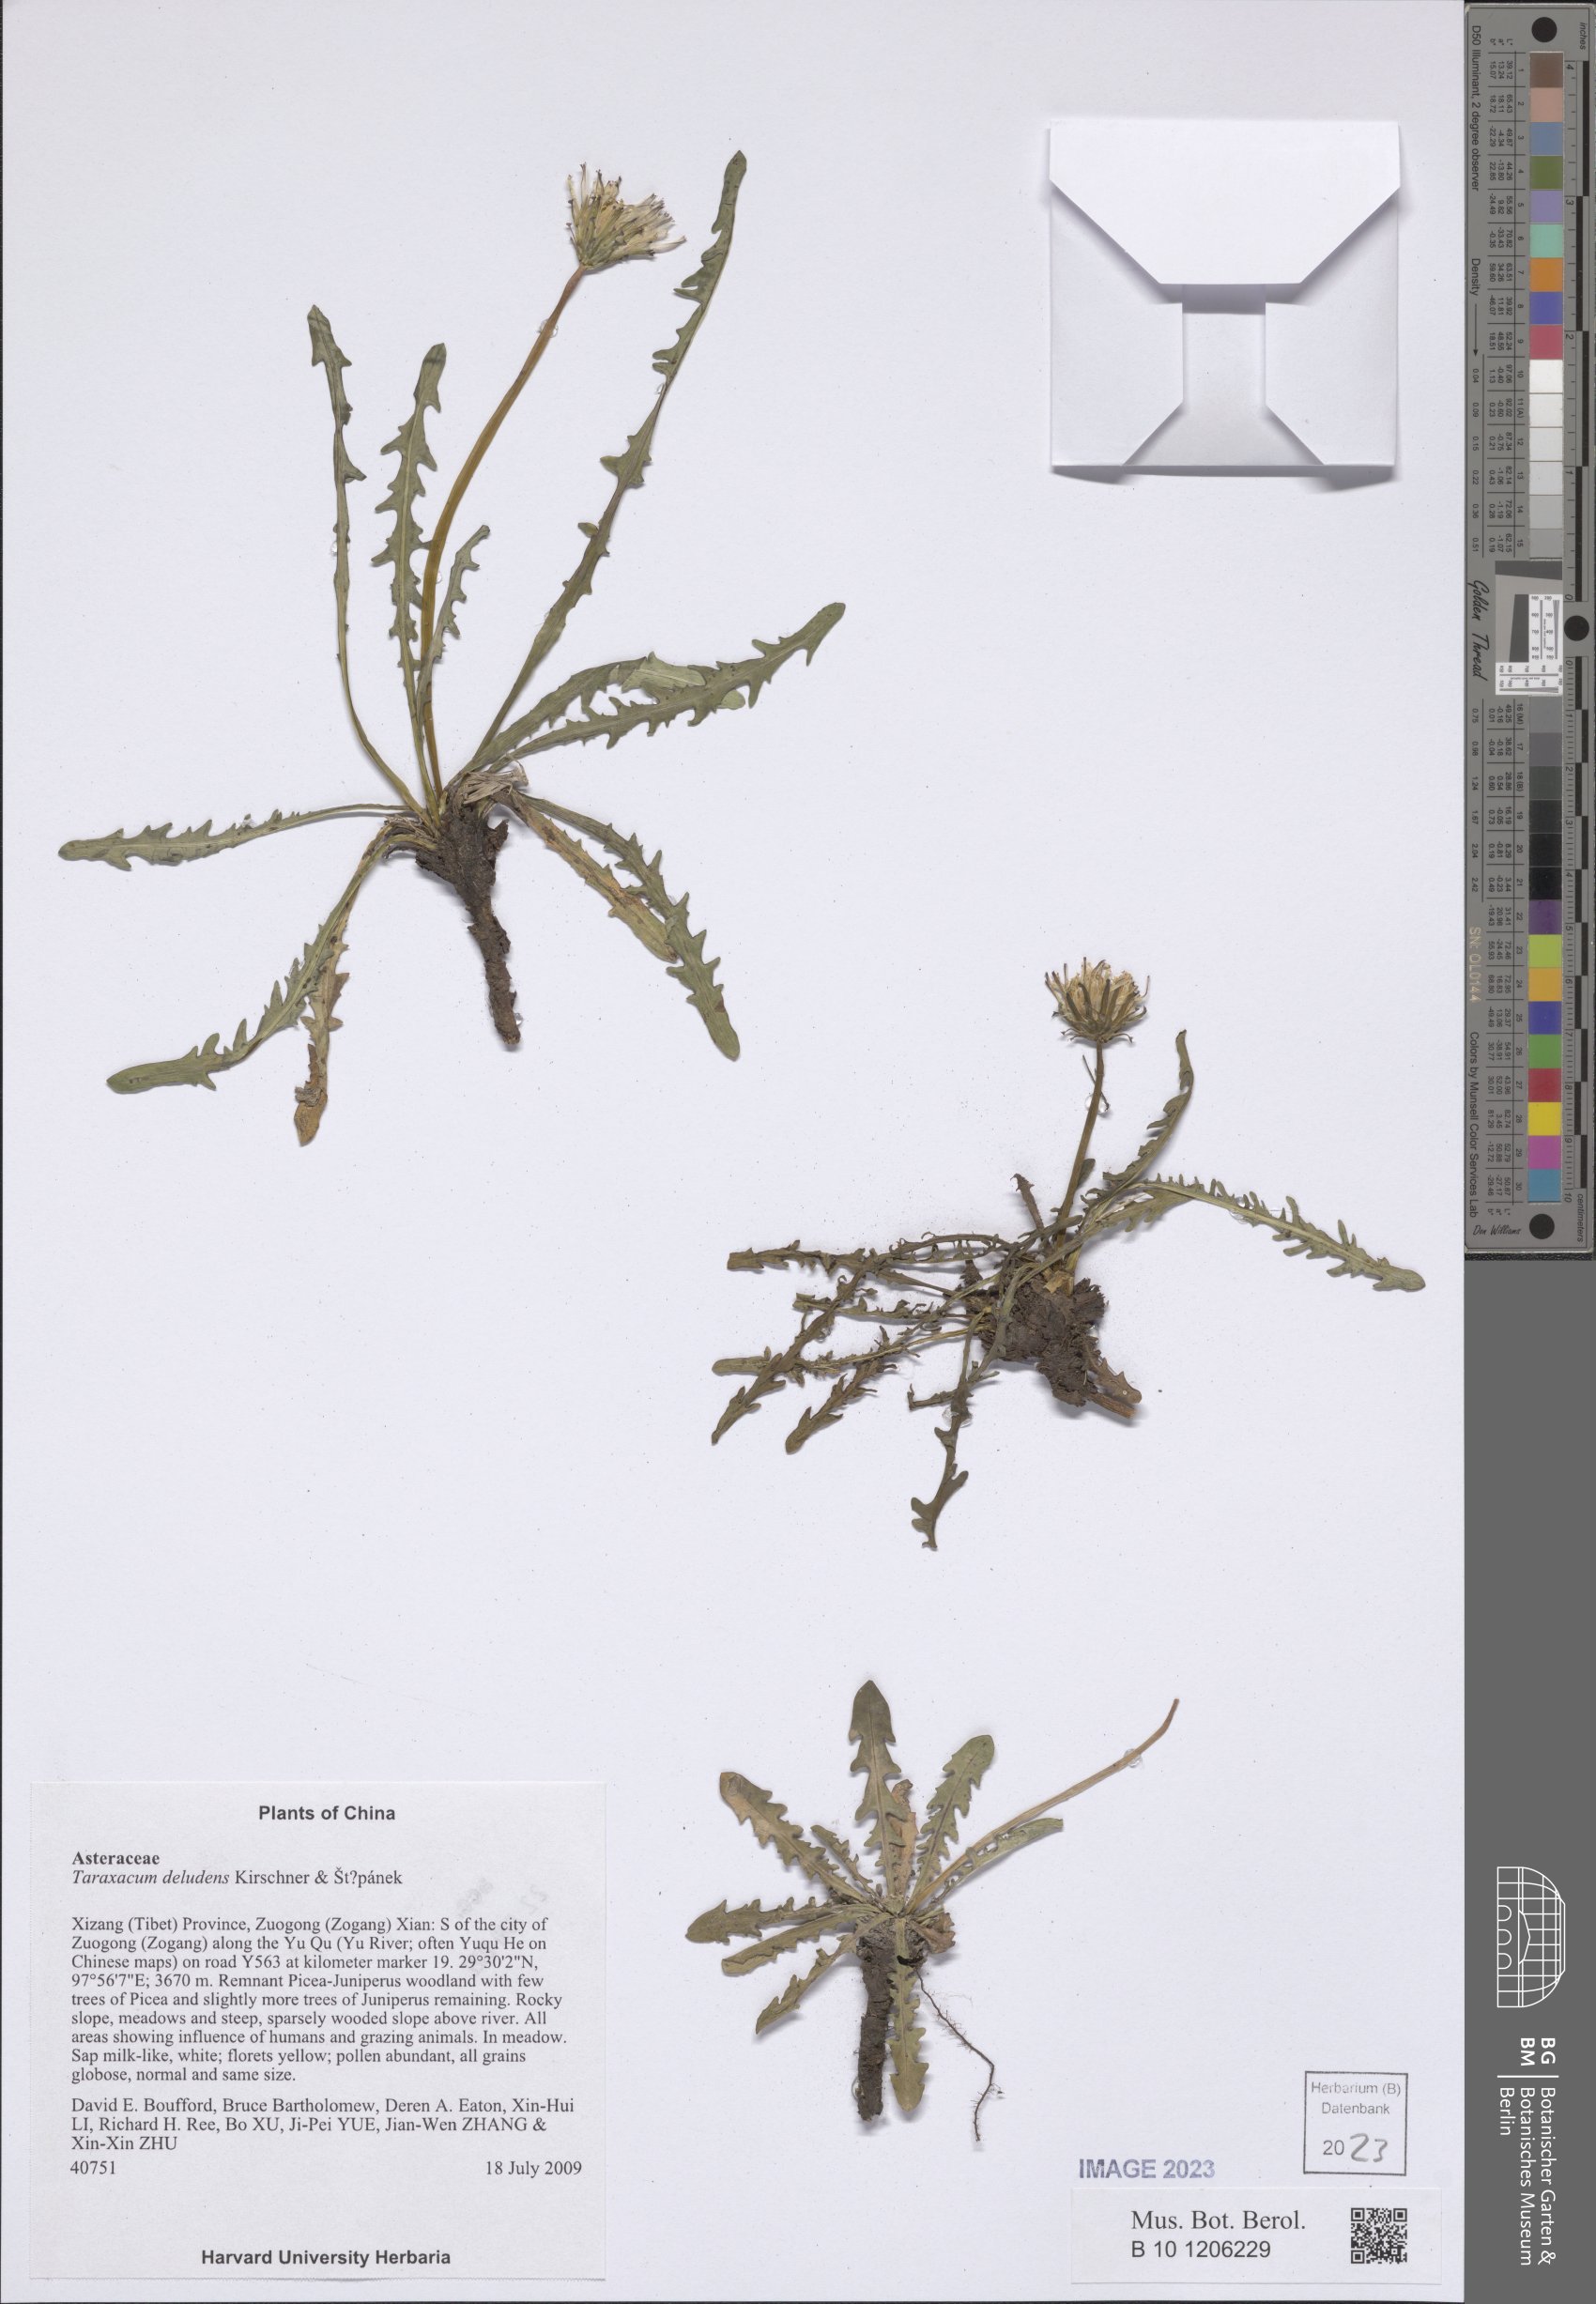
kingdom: Plantae
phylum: Tracheophyta
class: Magnoliopsida
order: Asterales
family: Asteraceae
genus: Taraxacum
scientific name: Taraxacum deludens
